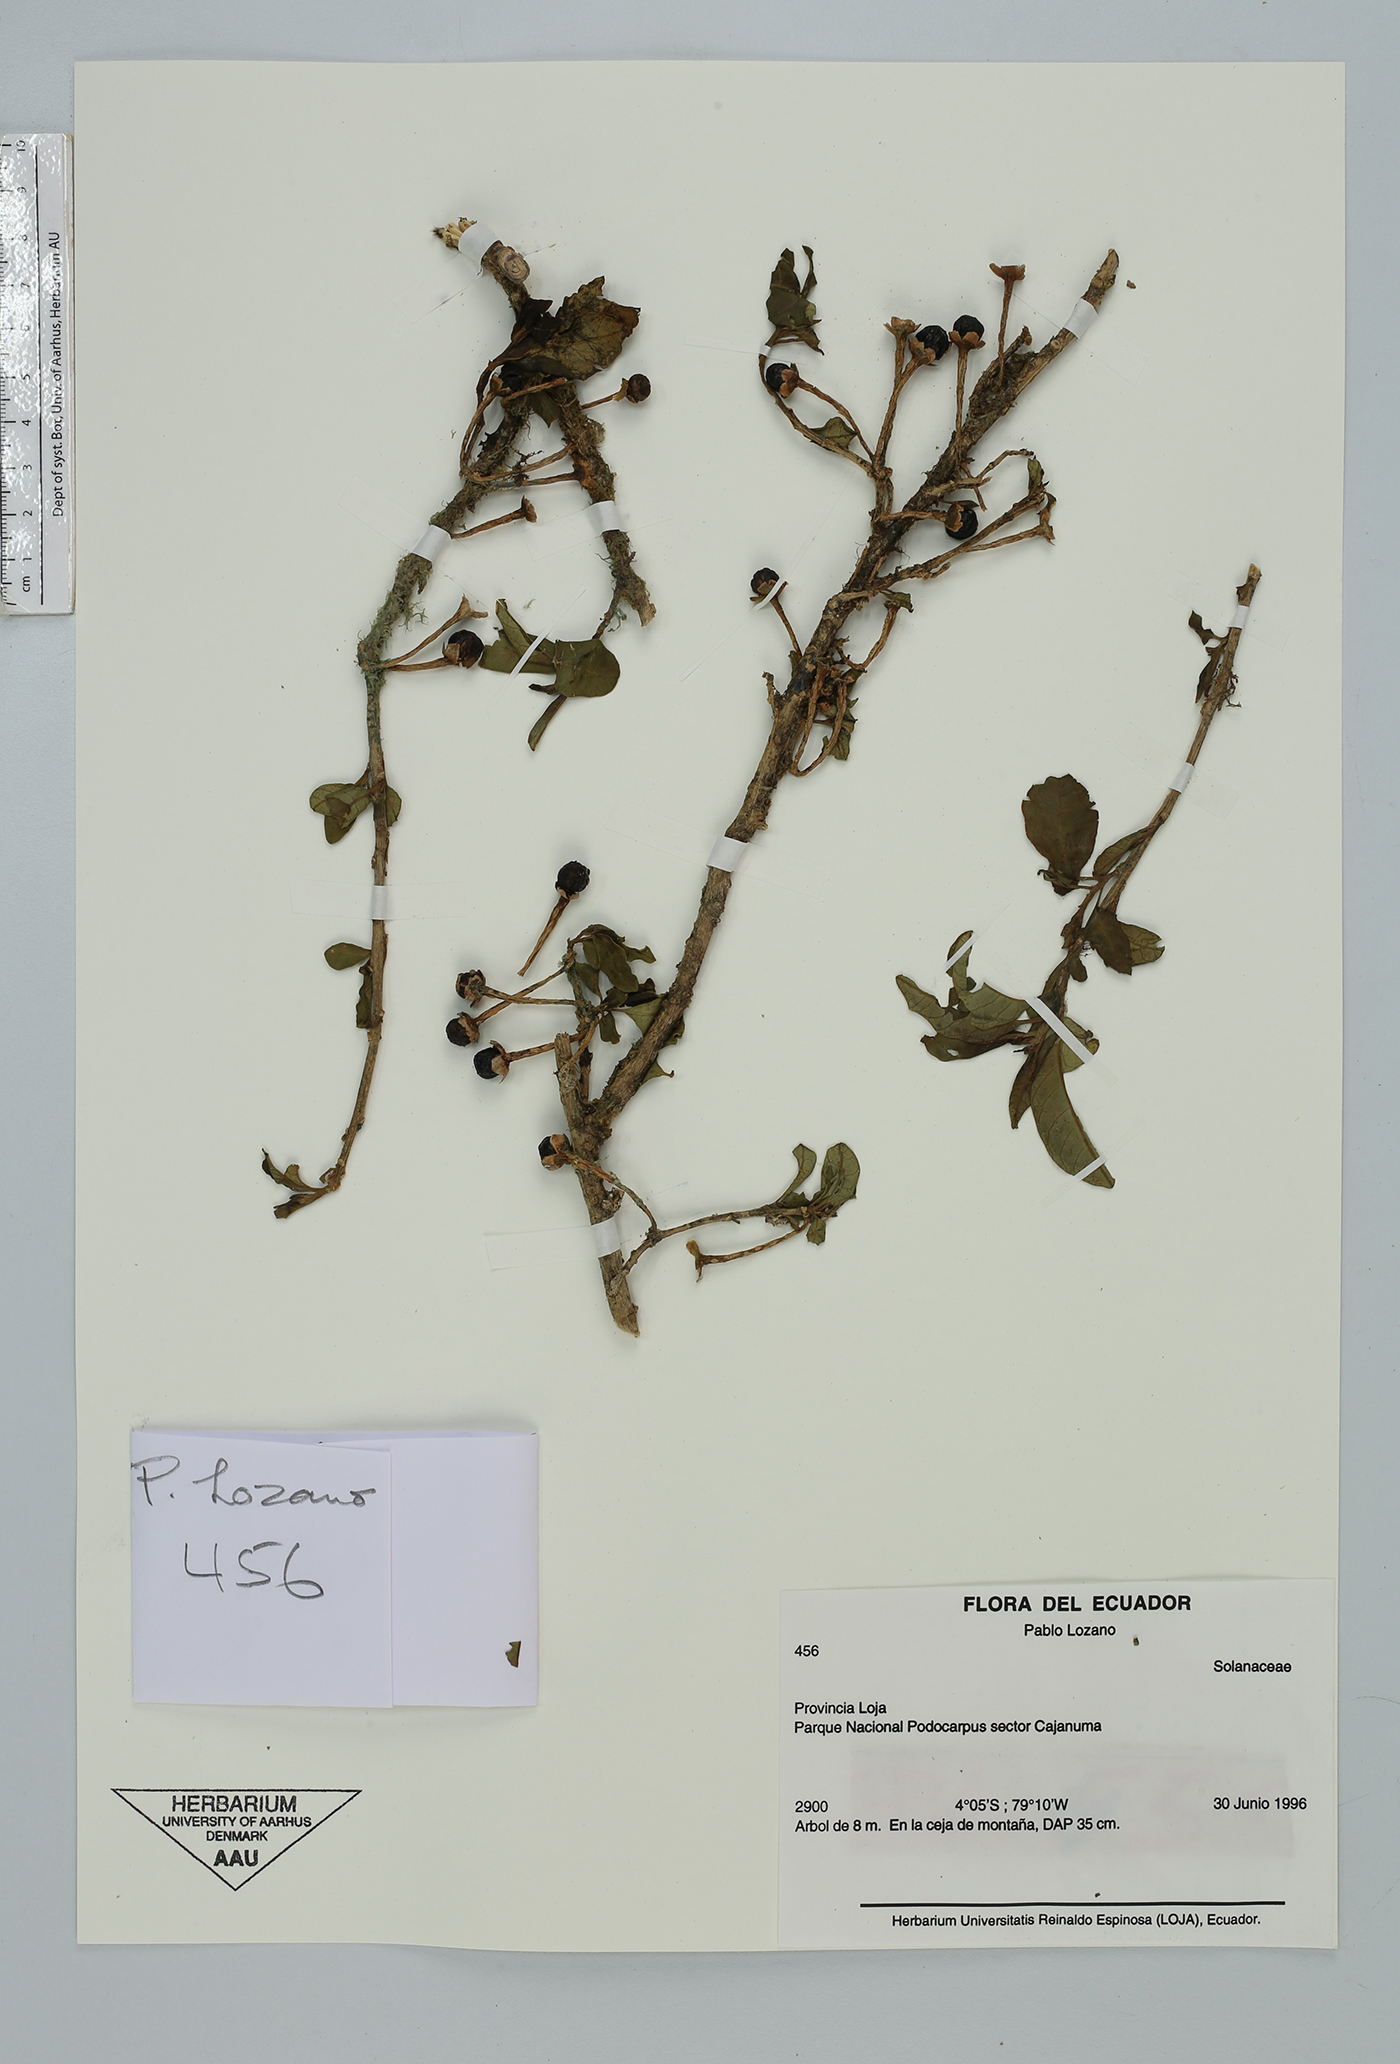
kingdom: Plantae
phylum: Tracheophyta
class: Magnoliopsida
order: Solanales
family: Solanaceae
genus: Saracha
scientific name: Saracha quitensis
